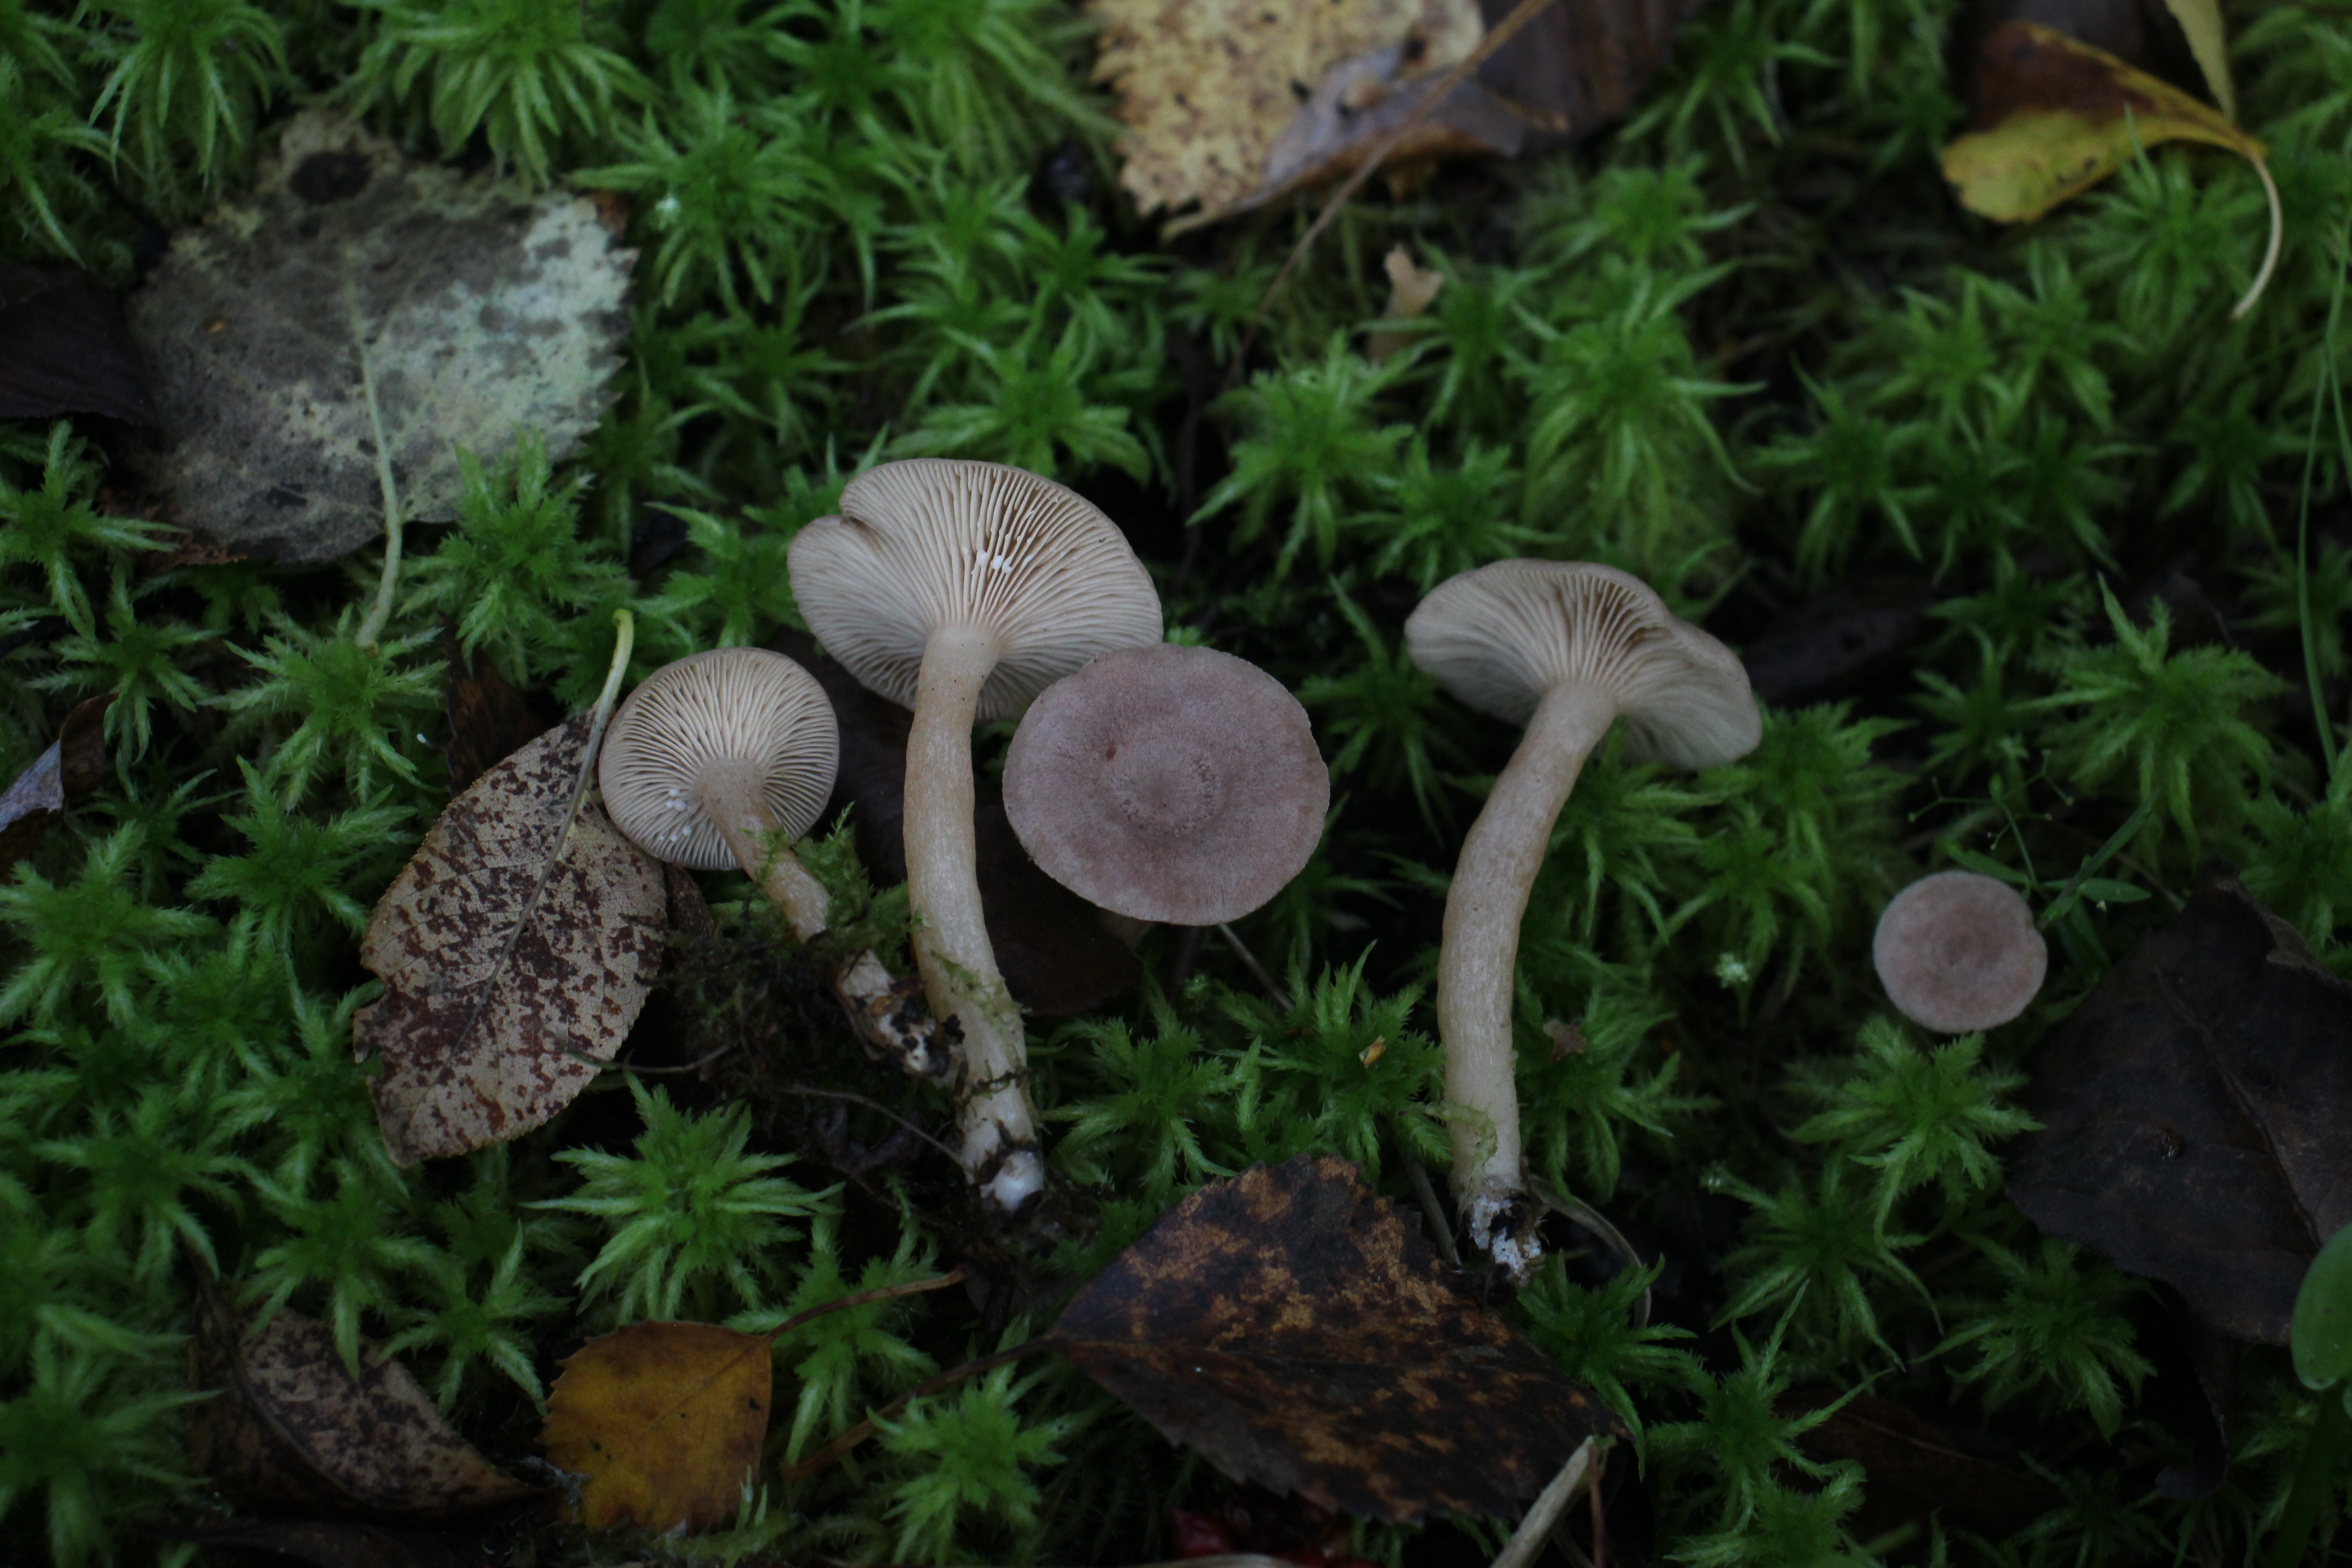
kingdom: Fungi
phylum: Basidiomycota
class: Agaricomycetes
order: Russulales
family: Russulaceae
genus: Lactarius
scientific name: Lactarius glyciosmus
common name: Coconut milkcap
